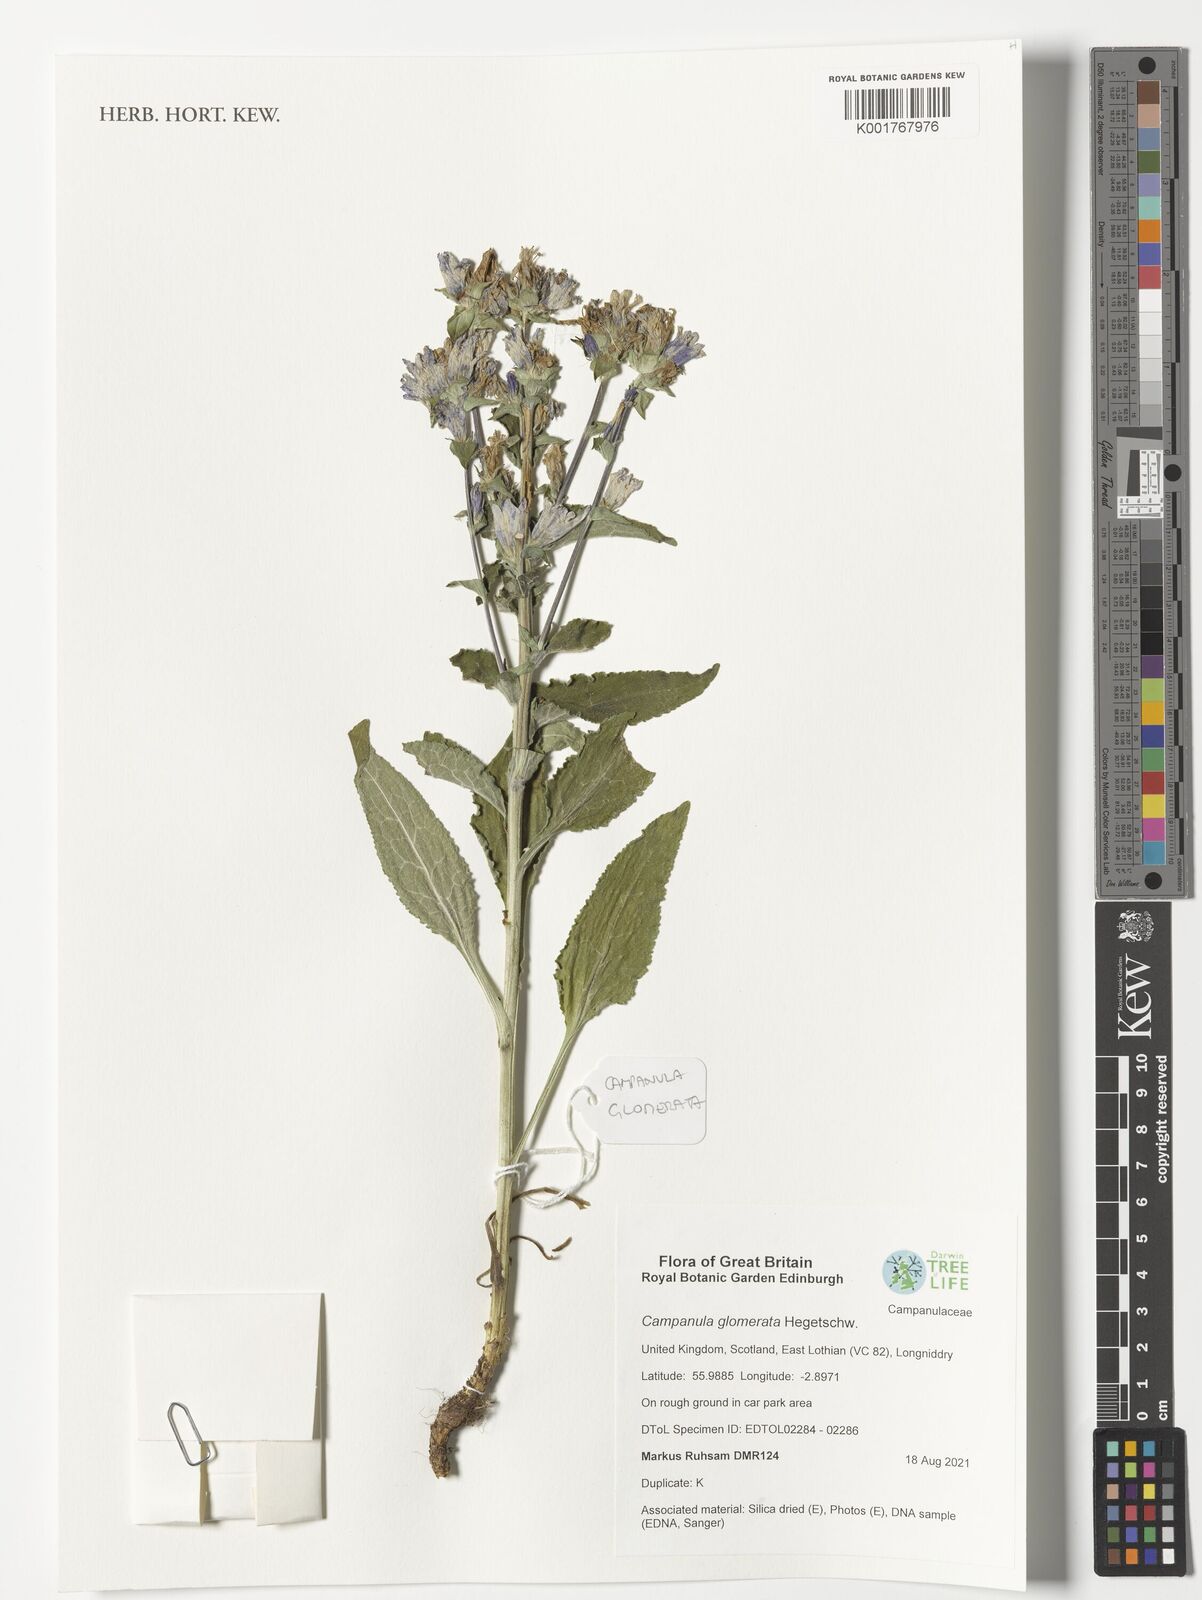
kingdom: Plantae
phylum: Tracheophyta
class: Magnoliopsida
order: Asterales
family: Campanulaceae
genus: Campanula
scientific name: Campanula glomerata
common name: Clustered bellflower
